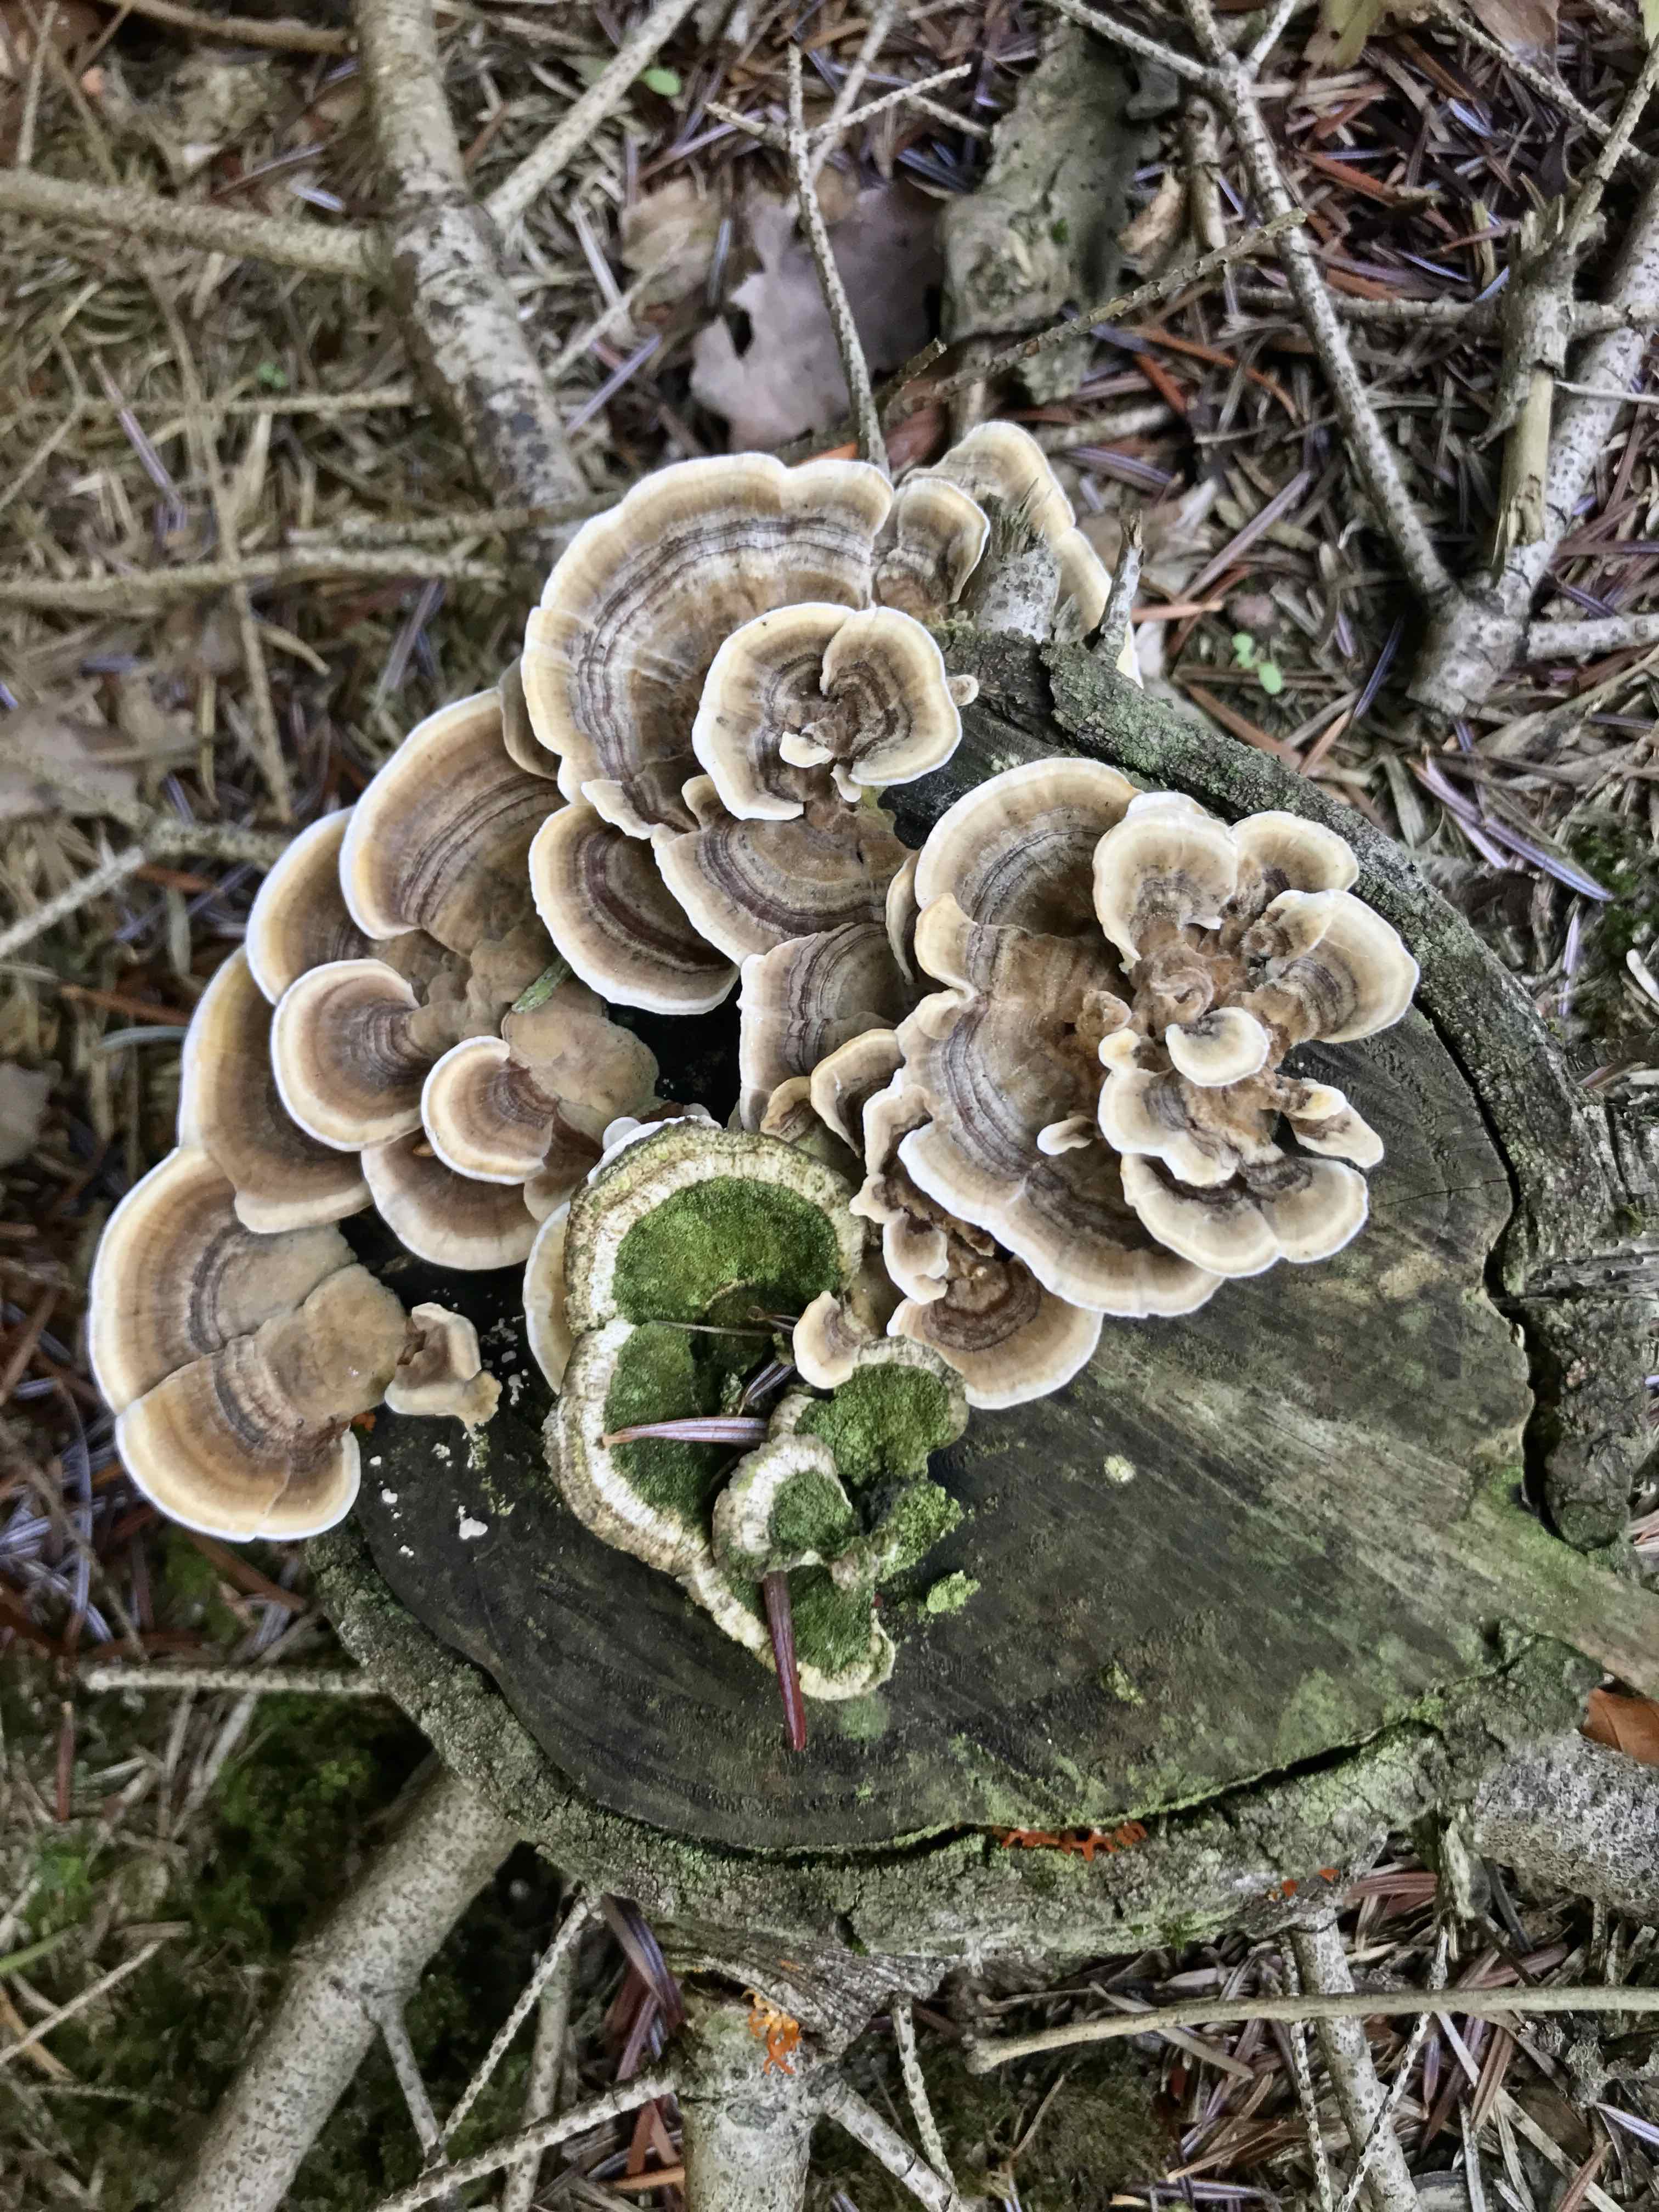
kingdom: Fungi
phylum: Basidiomycota
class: Agaricomycetes
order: Polyporales
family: Polyporaceae
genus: Trametes
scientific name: Trametes versicolor
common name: broget læderporesvamp
